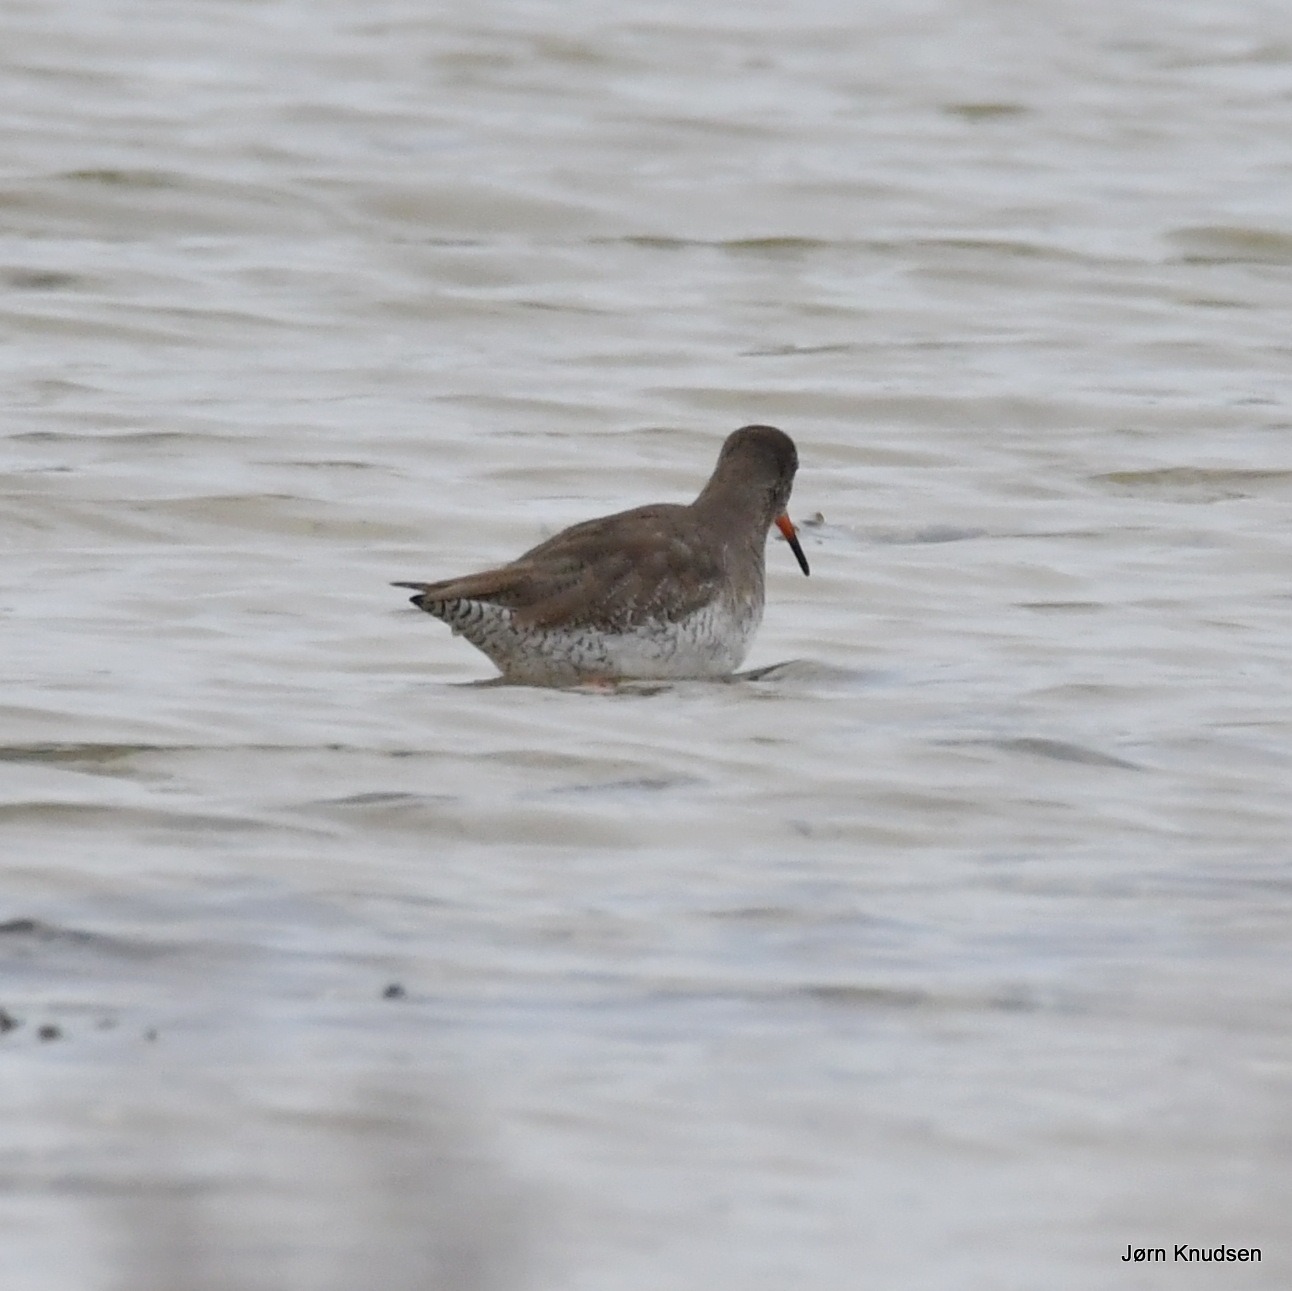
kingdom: Animalia
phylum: Chordata
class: Aves
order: Charadriiformes
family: Scolopacidae
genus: Tringa
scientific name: Tringa totanus
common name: Rødben
